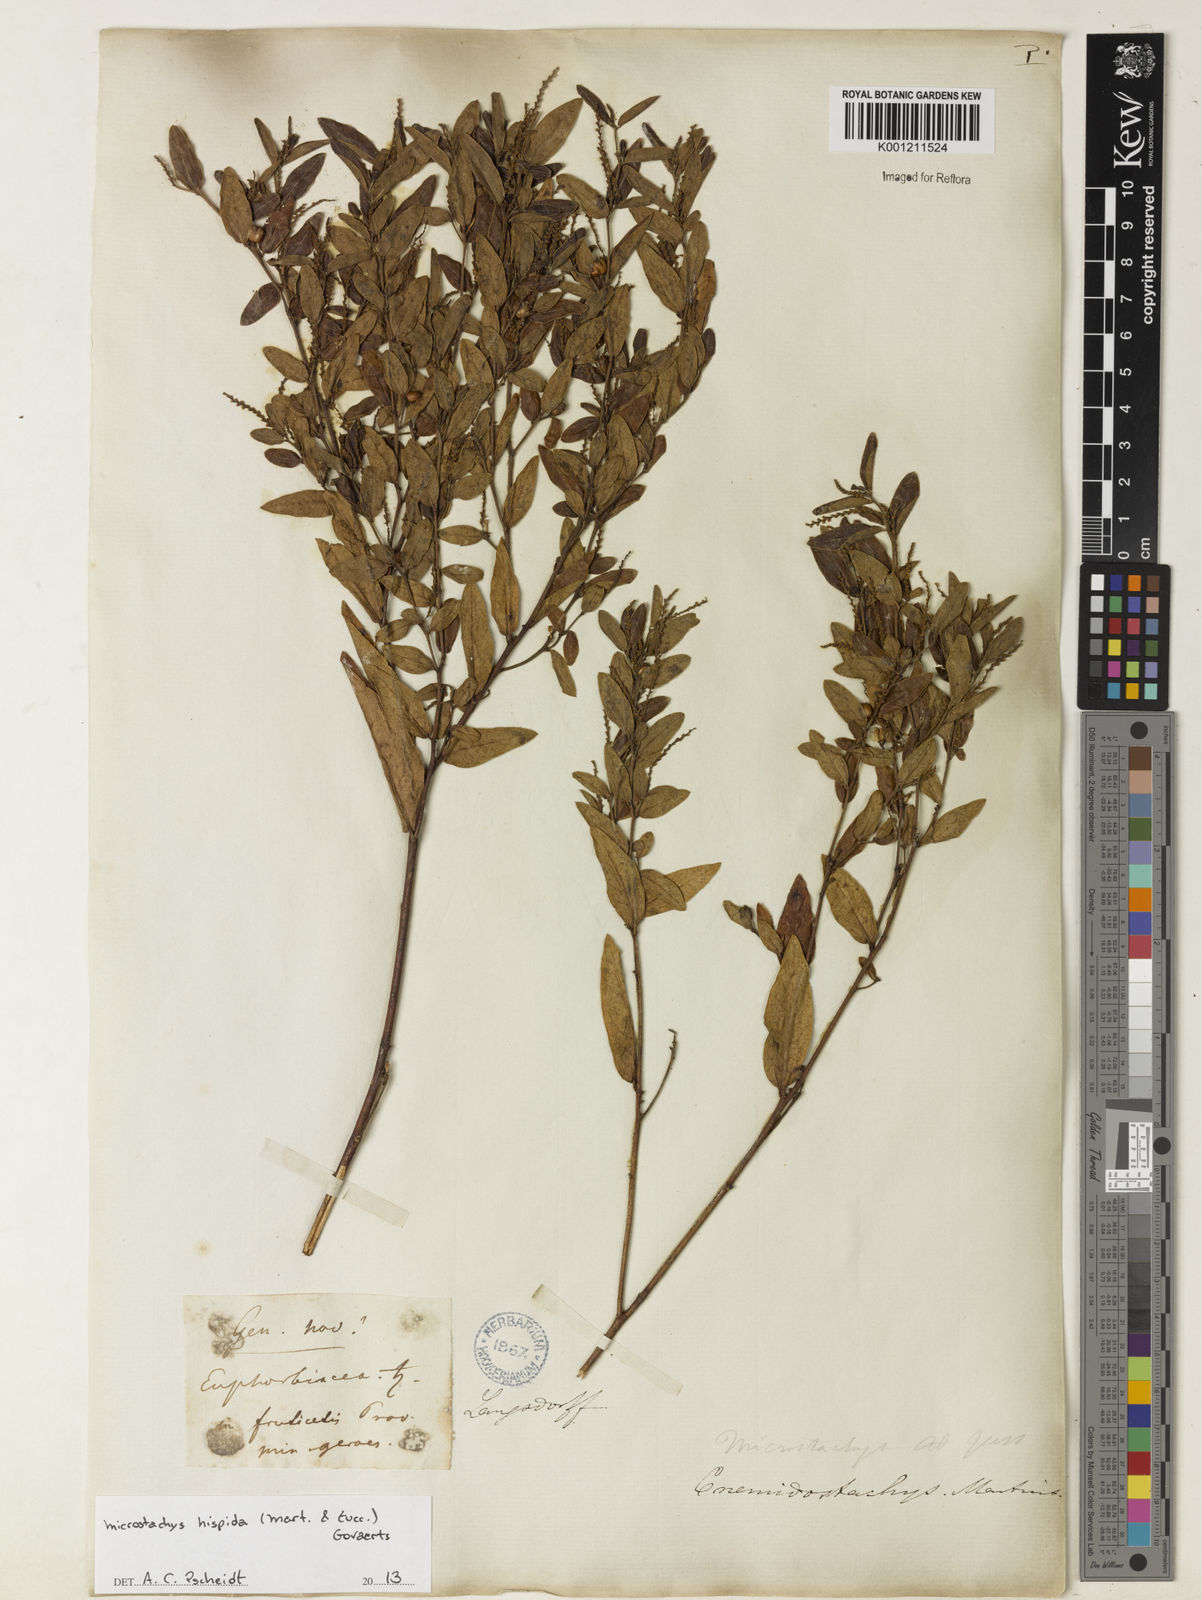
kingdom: Plantae
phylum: Tracheophyta
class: Magnoliopsida
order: Malpighiales
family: Euphorbiaceae
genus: Microstachys
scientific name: Microstachys hispida
